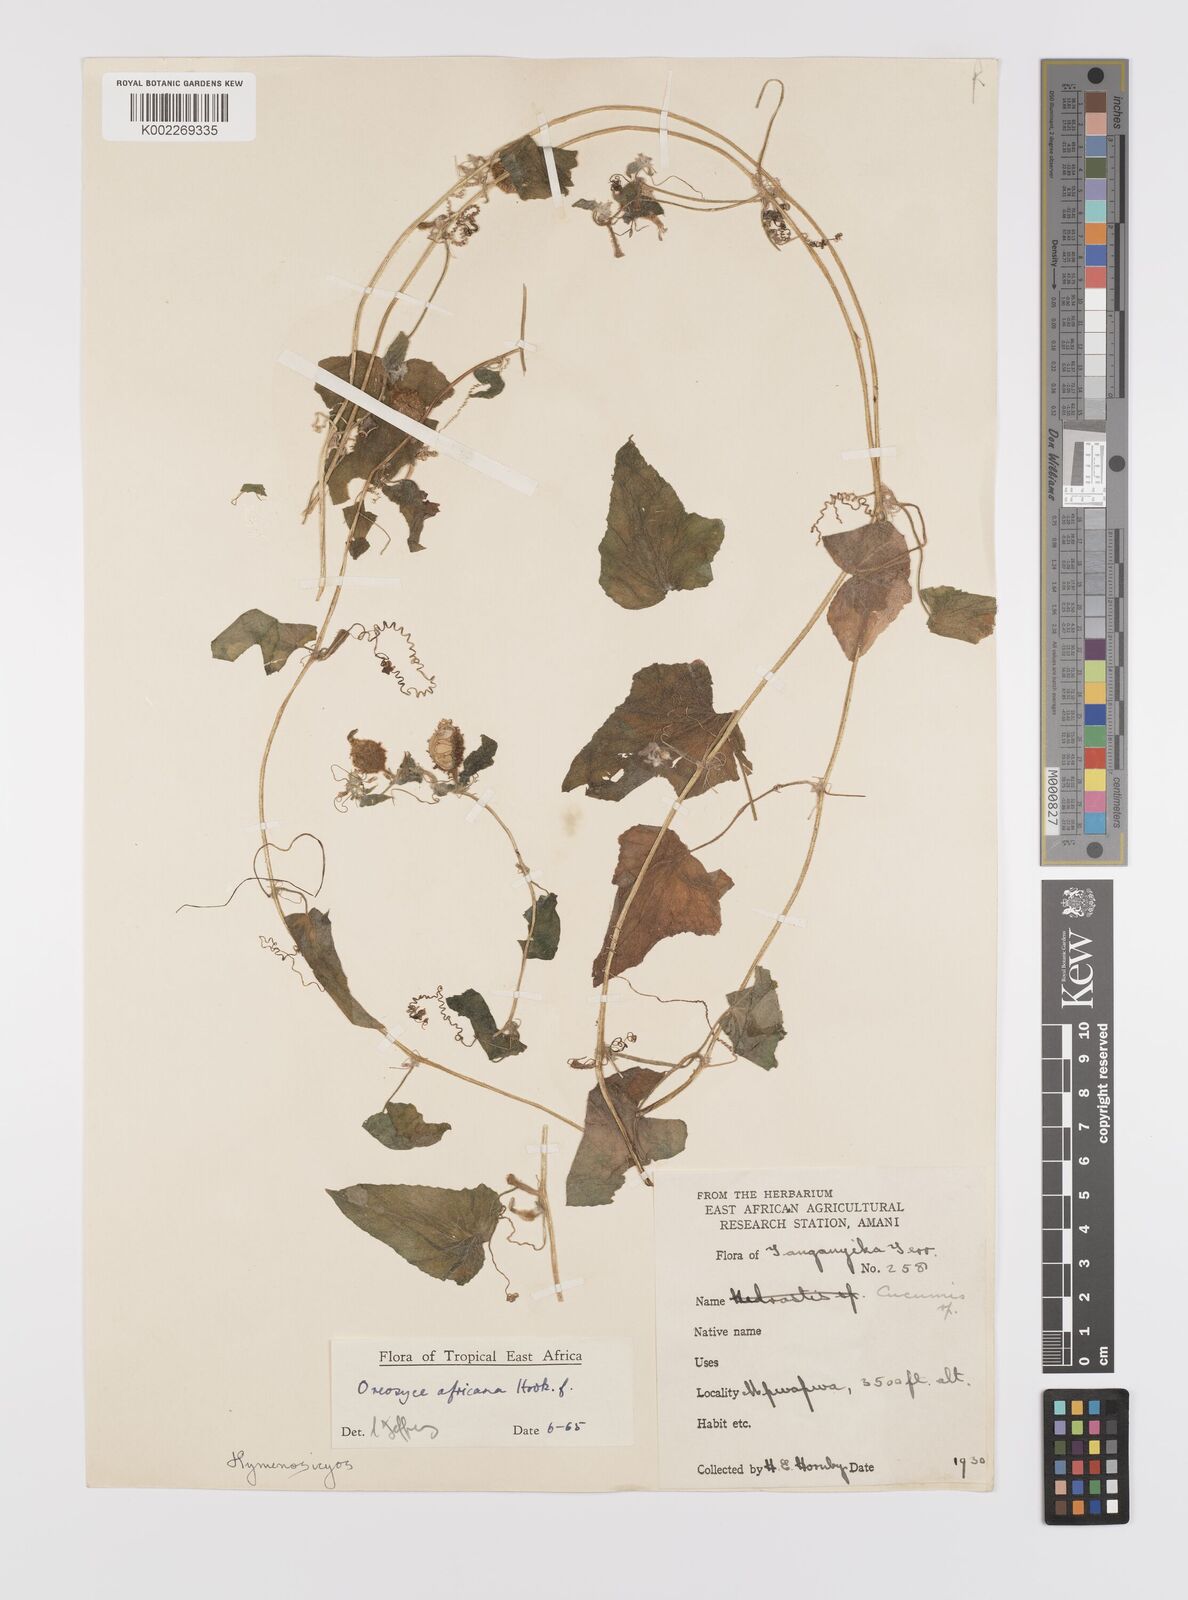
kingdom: Plantae
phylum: Tracheophyta
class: Magnoliopsida
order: Cucurbitales
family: Cucurbitaceae
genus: Cucumis
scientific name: Cucumis oreosyce
